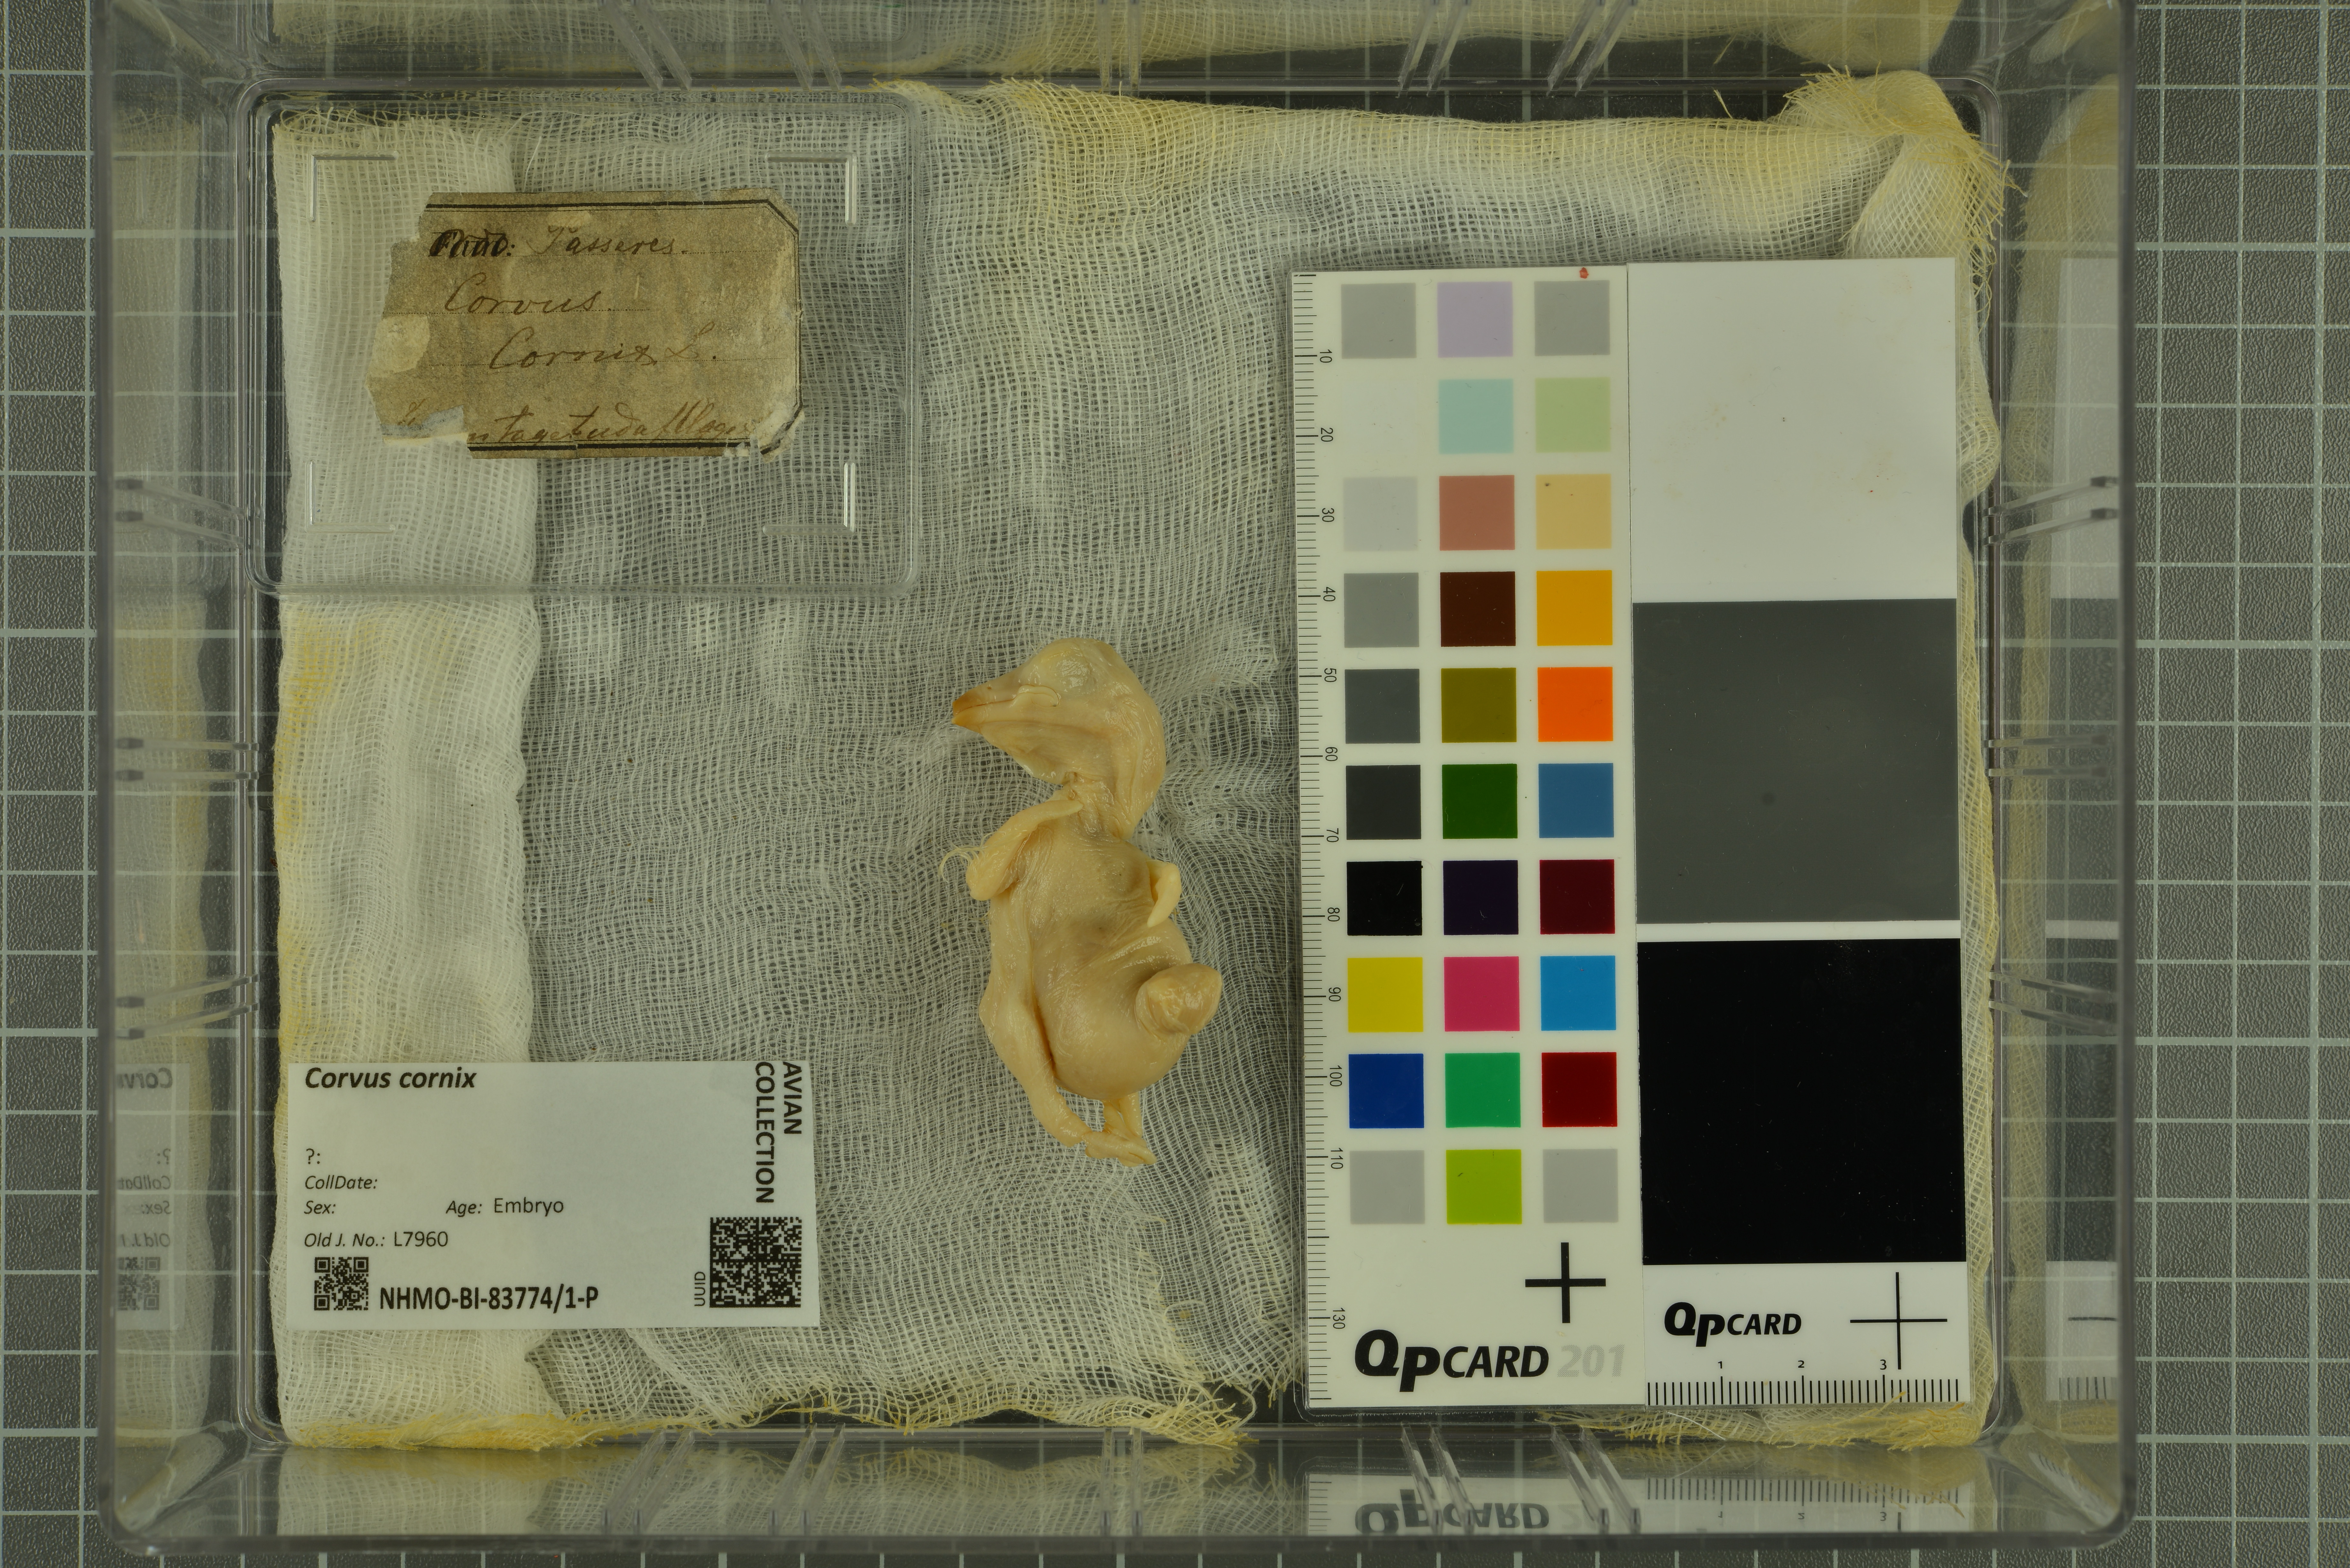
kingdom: Animalia
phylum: Chordata
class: Aves
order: Passeriformes
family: Corvidae
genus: Corvus
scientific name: Corvus cornix
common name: Hooded crow
